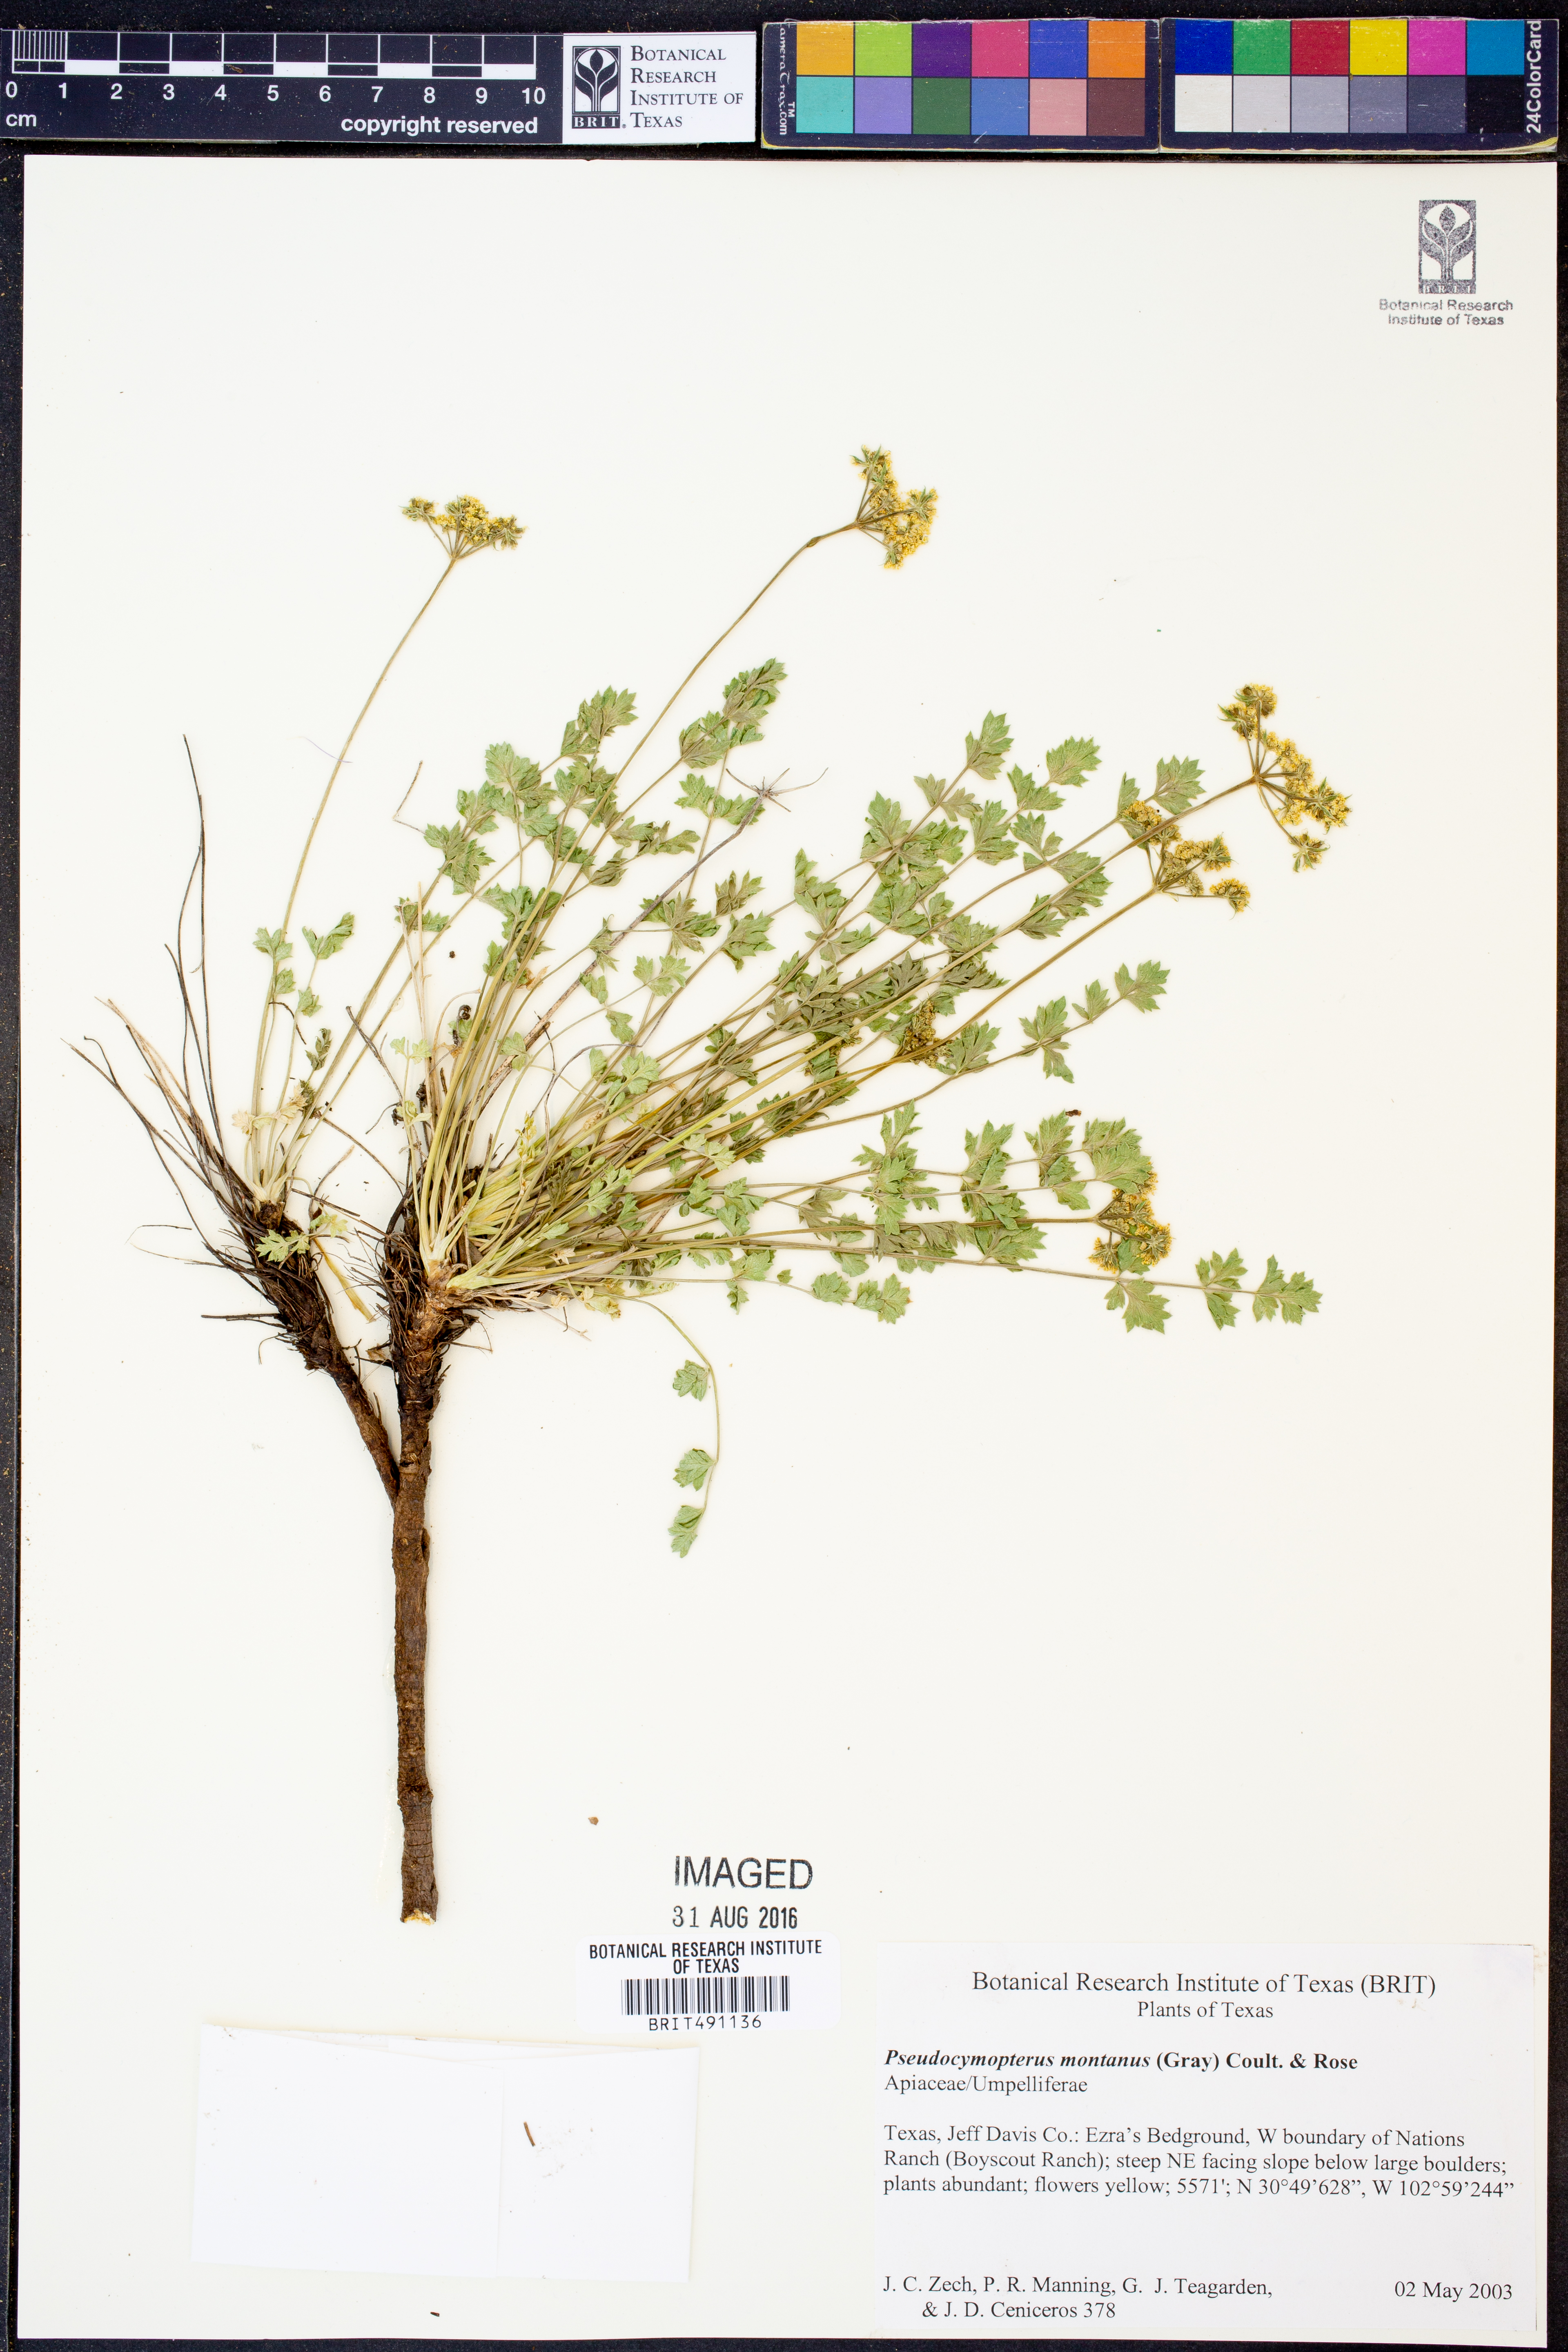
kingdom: Plantae
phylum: Tracheophyta
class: Magnoliopsida
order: Apiales
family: Apiaceae
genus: Cymopterus
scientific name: Cymopterus lemmonii
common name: Lemmon's spring-parsley
